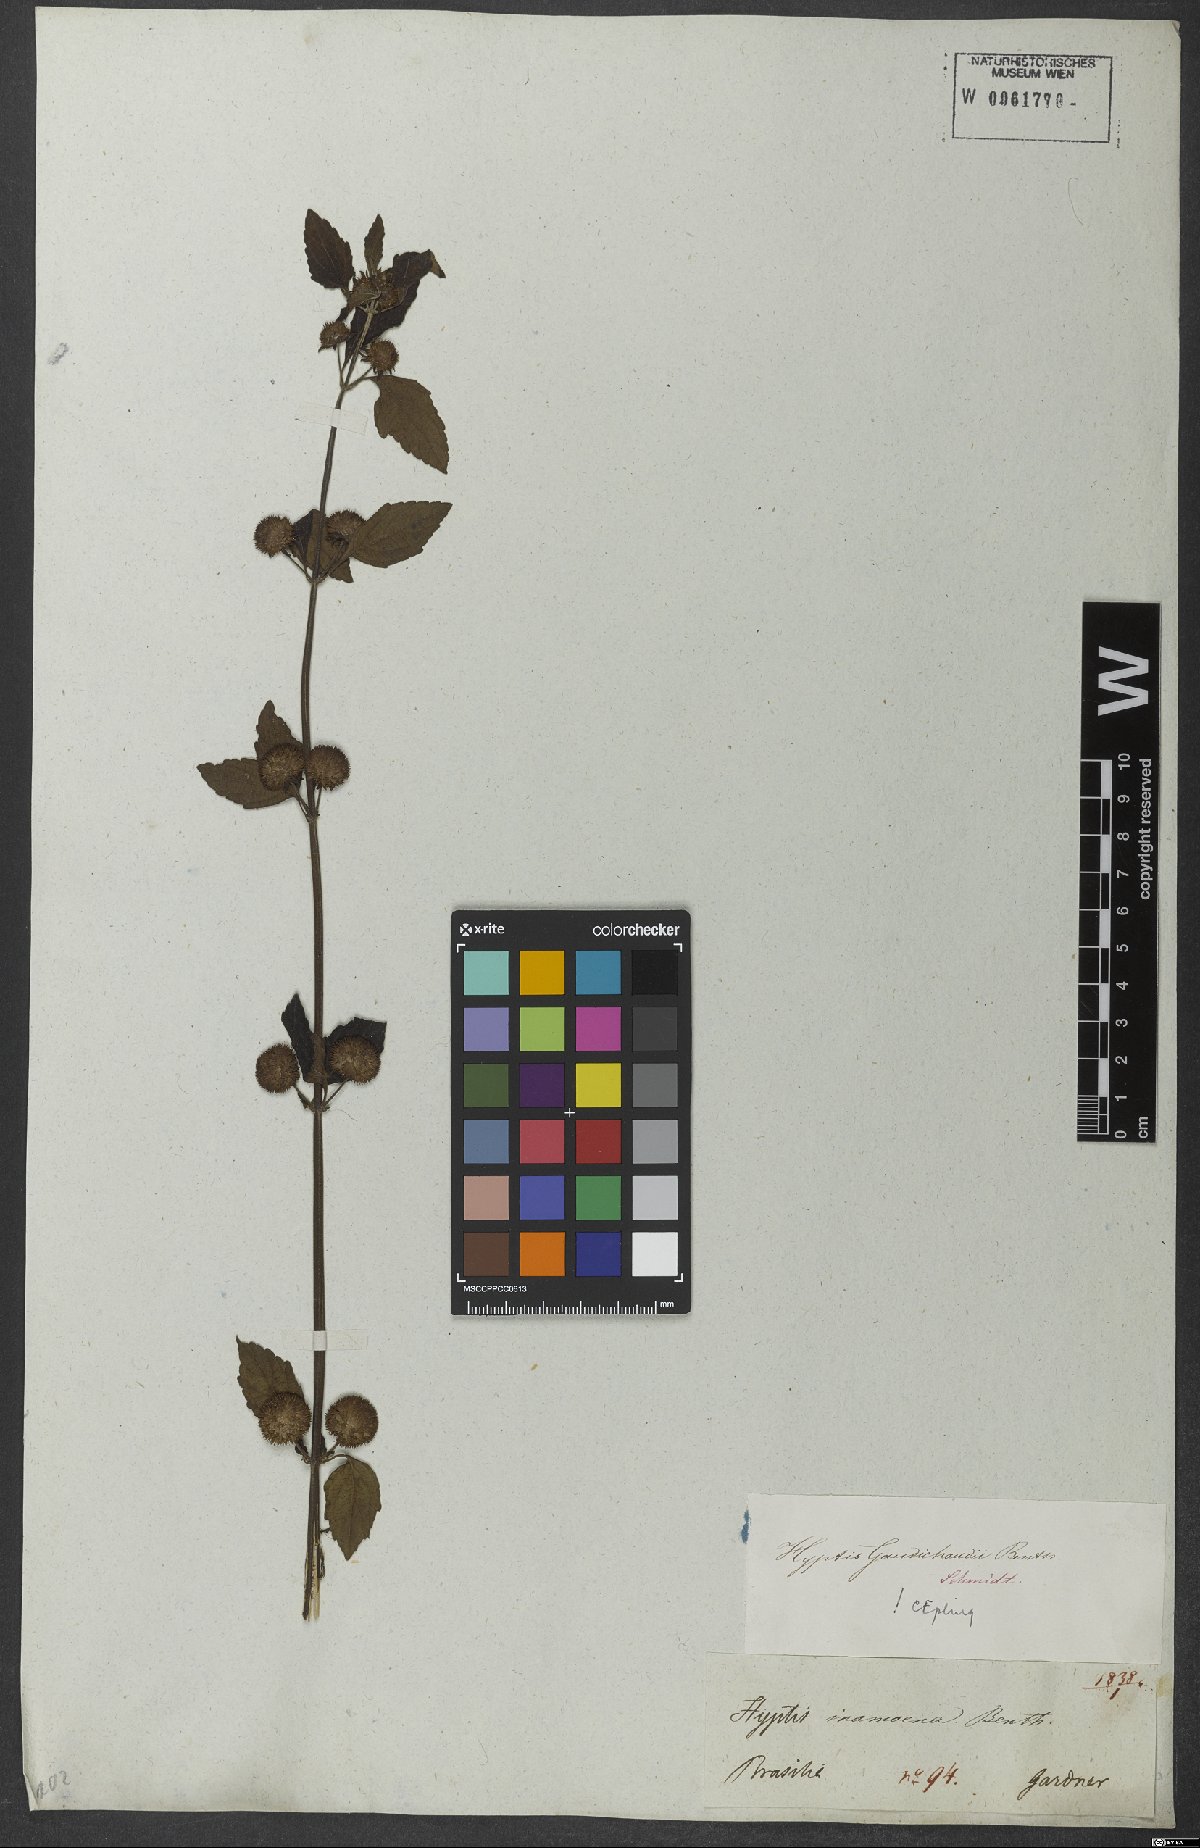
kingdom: Plantae
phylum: Tracheophyta
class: Magnoliopsida
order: Lamiales
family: Lamiaceae
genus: Hyptis
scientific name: Hyptis inodora
